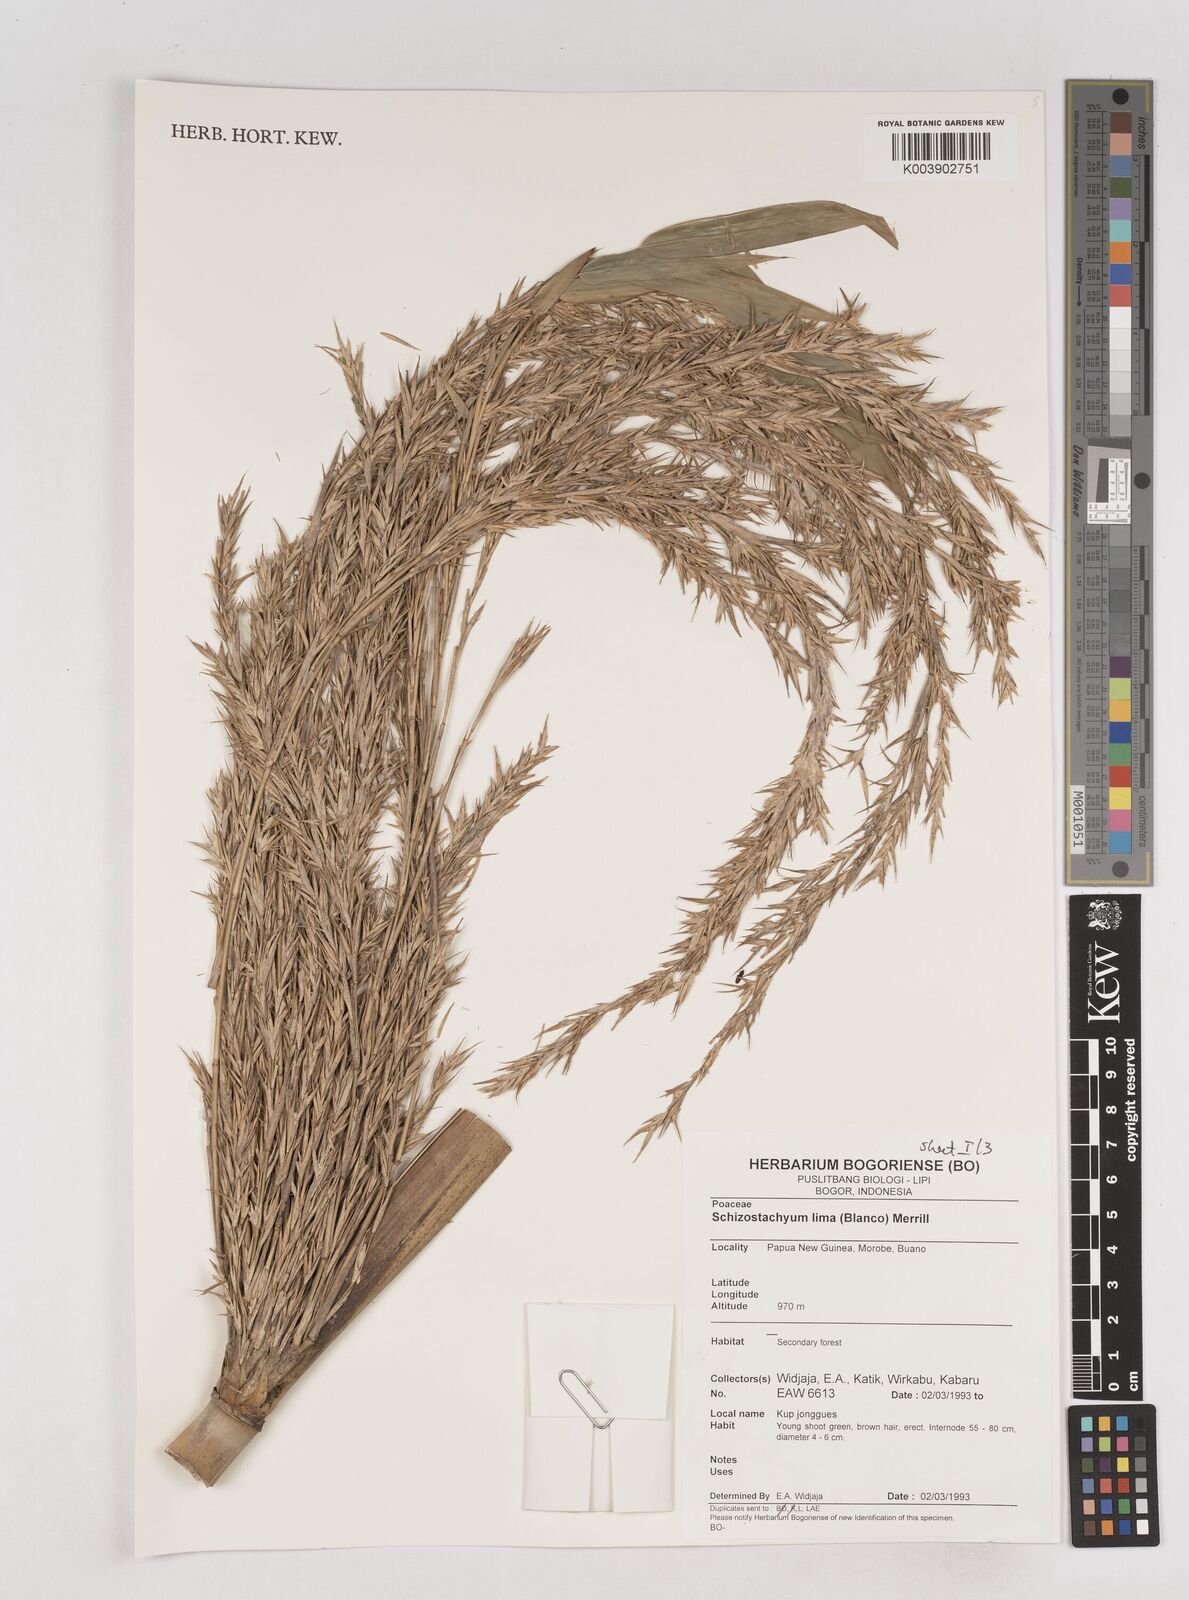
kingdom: Plantae
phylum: Tracheophyta
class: Liliopsida
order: Poales
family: Poaceae
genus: Schizostachyum
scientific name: Schizostachyum lima
